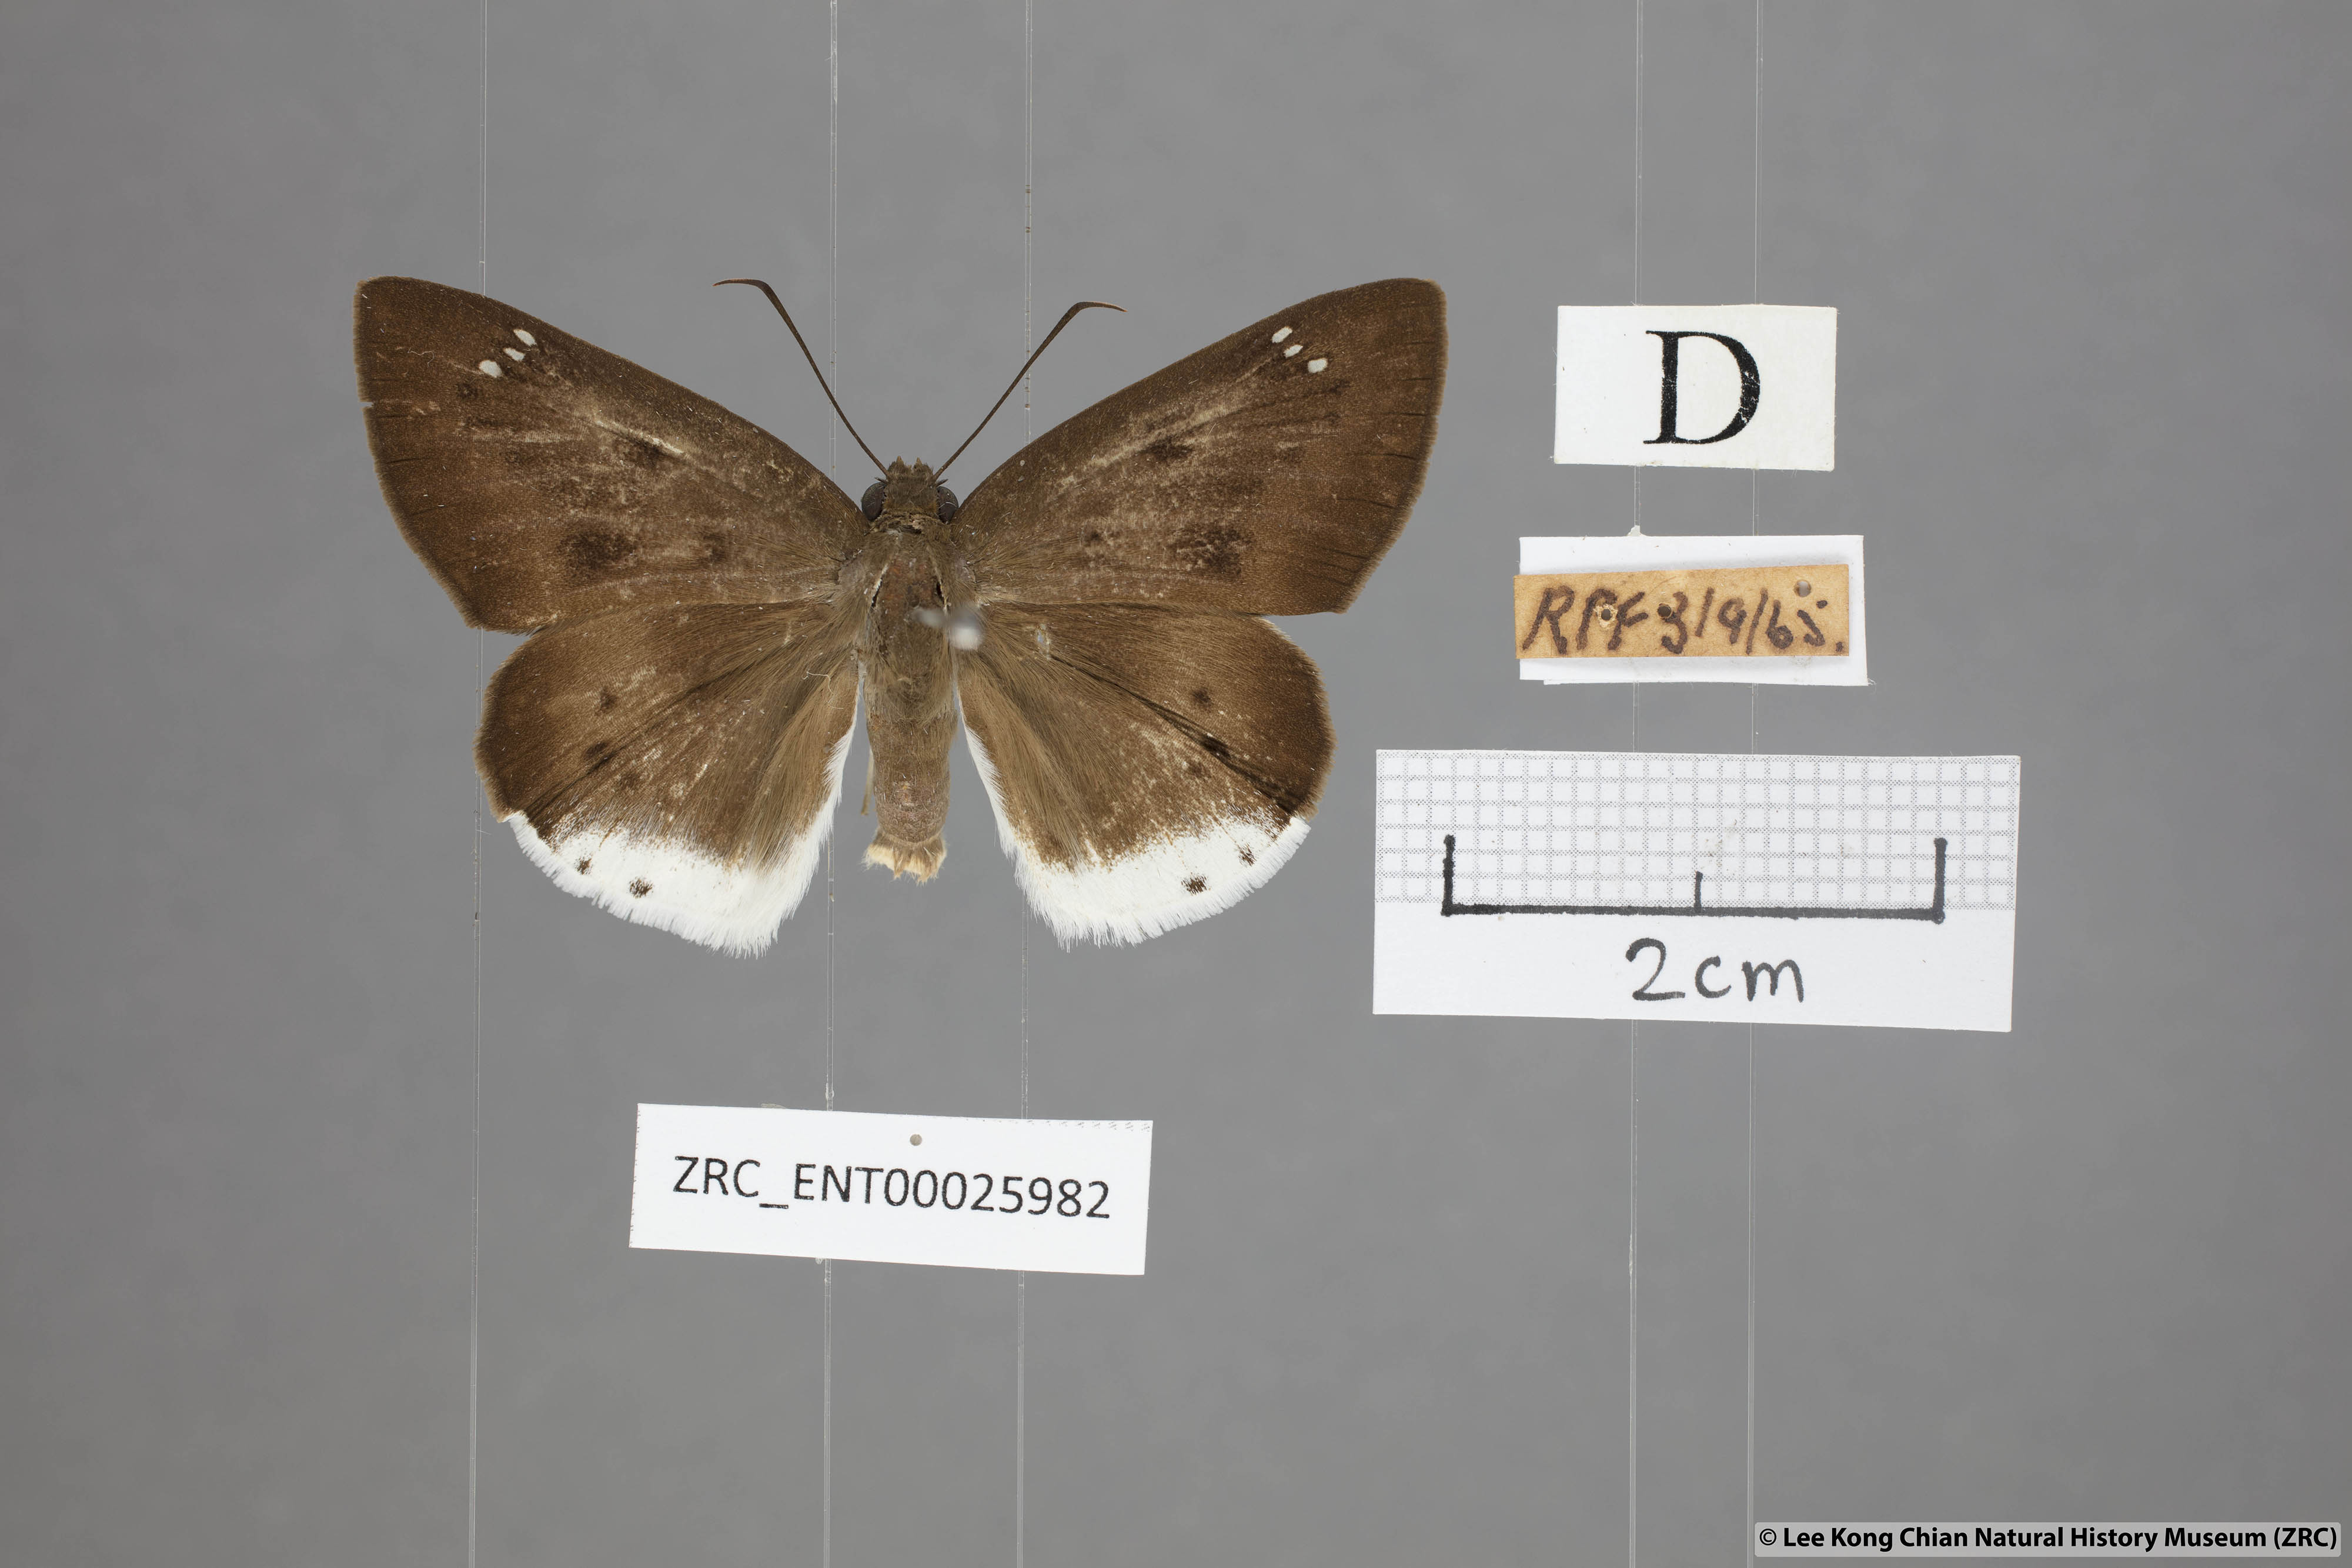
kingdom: Animalia
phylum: Arthropoda
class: Insecta
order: Lepidoptera
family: Hesperiidae
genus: Tagiades
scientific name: Tagiades gana
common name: Suffused snow flat
